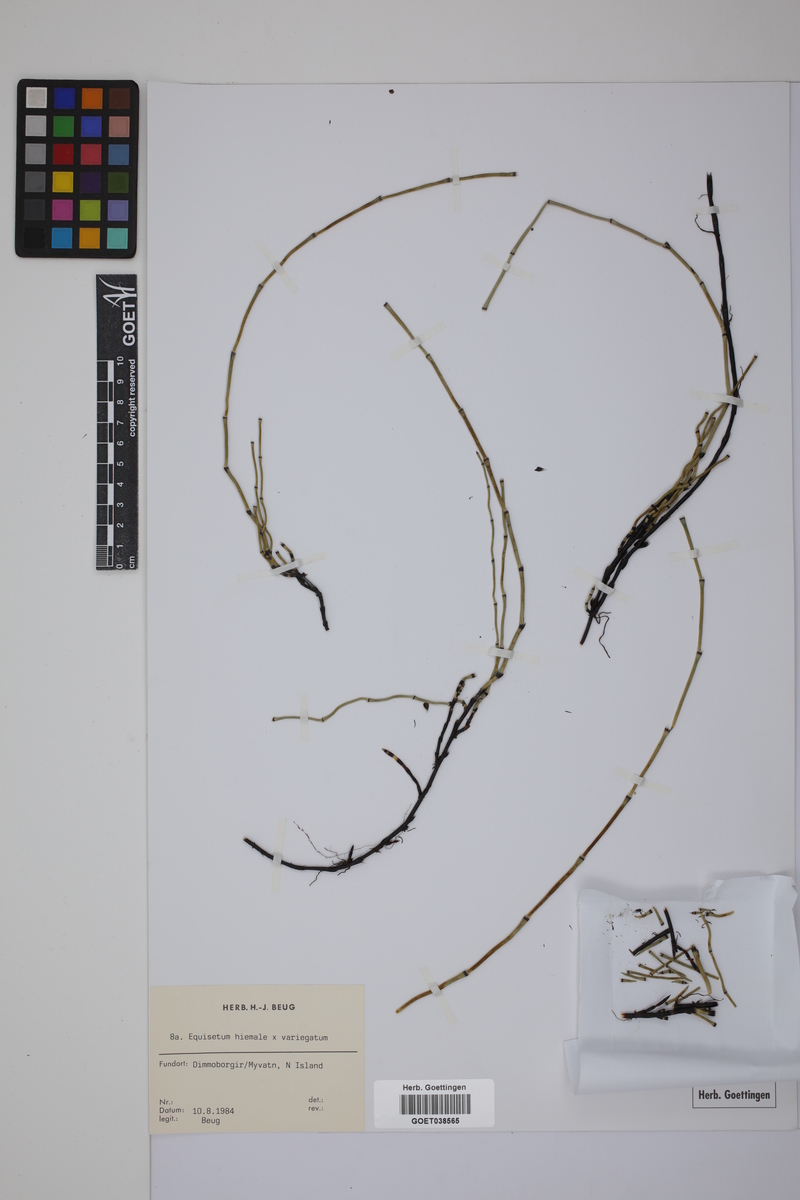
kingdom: Plantae
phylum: Tracheophyta
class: Polypodiopsida
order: Equisetales
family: Equisetaceae
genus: Equisetum
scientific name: Equisetum hyemale
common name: Rough horsetail
